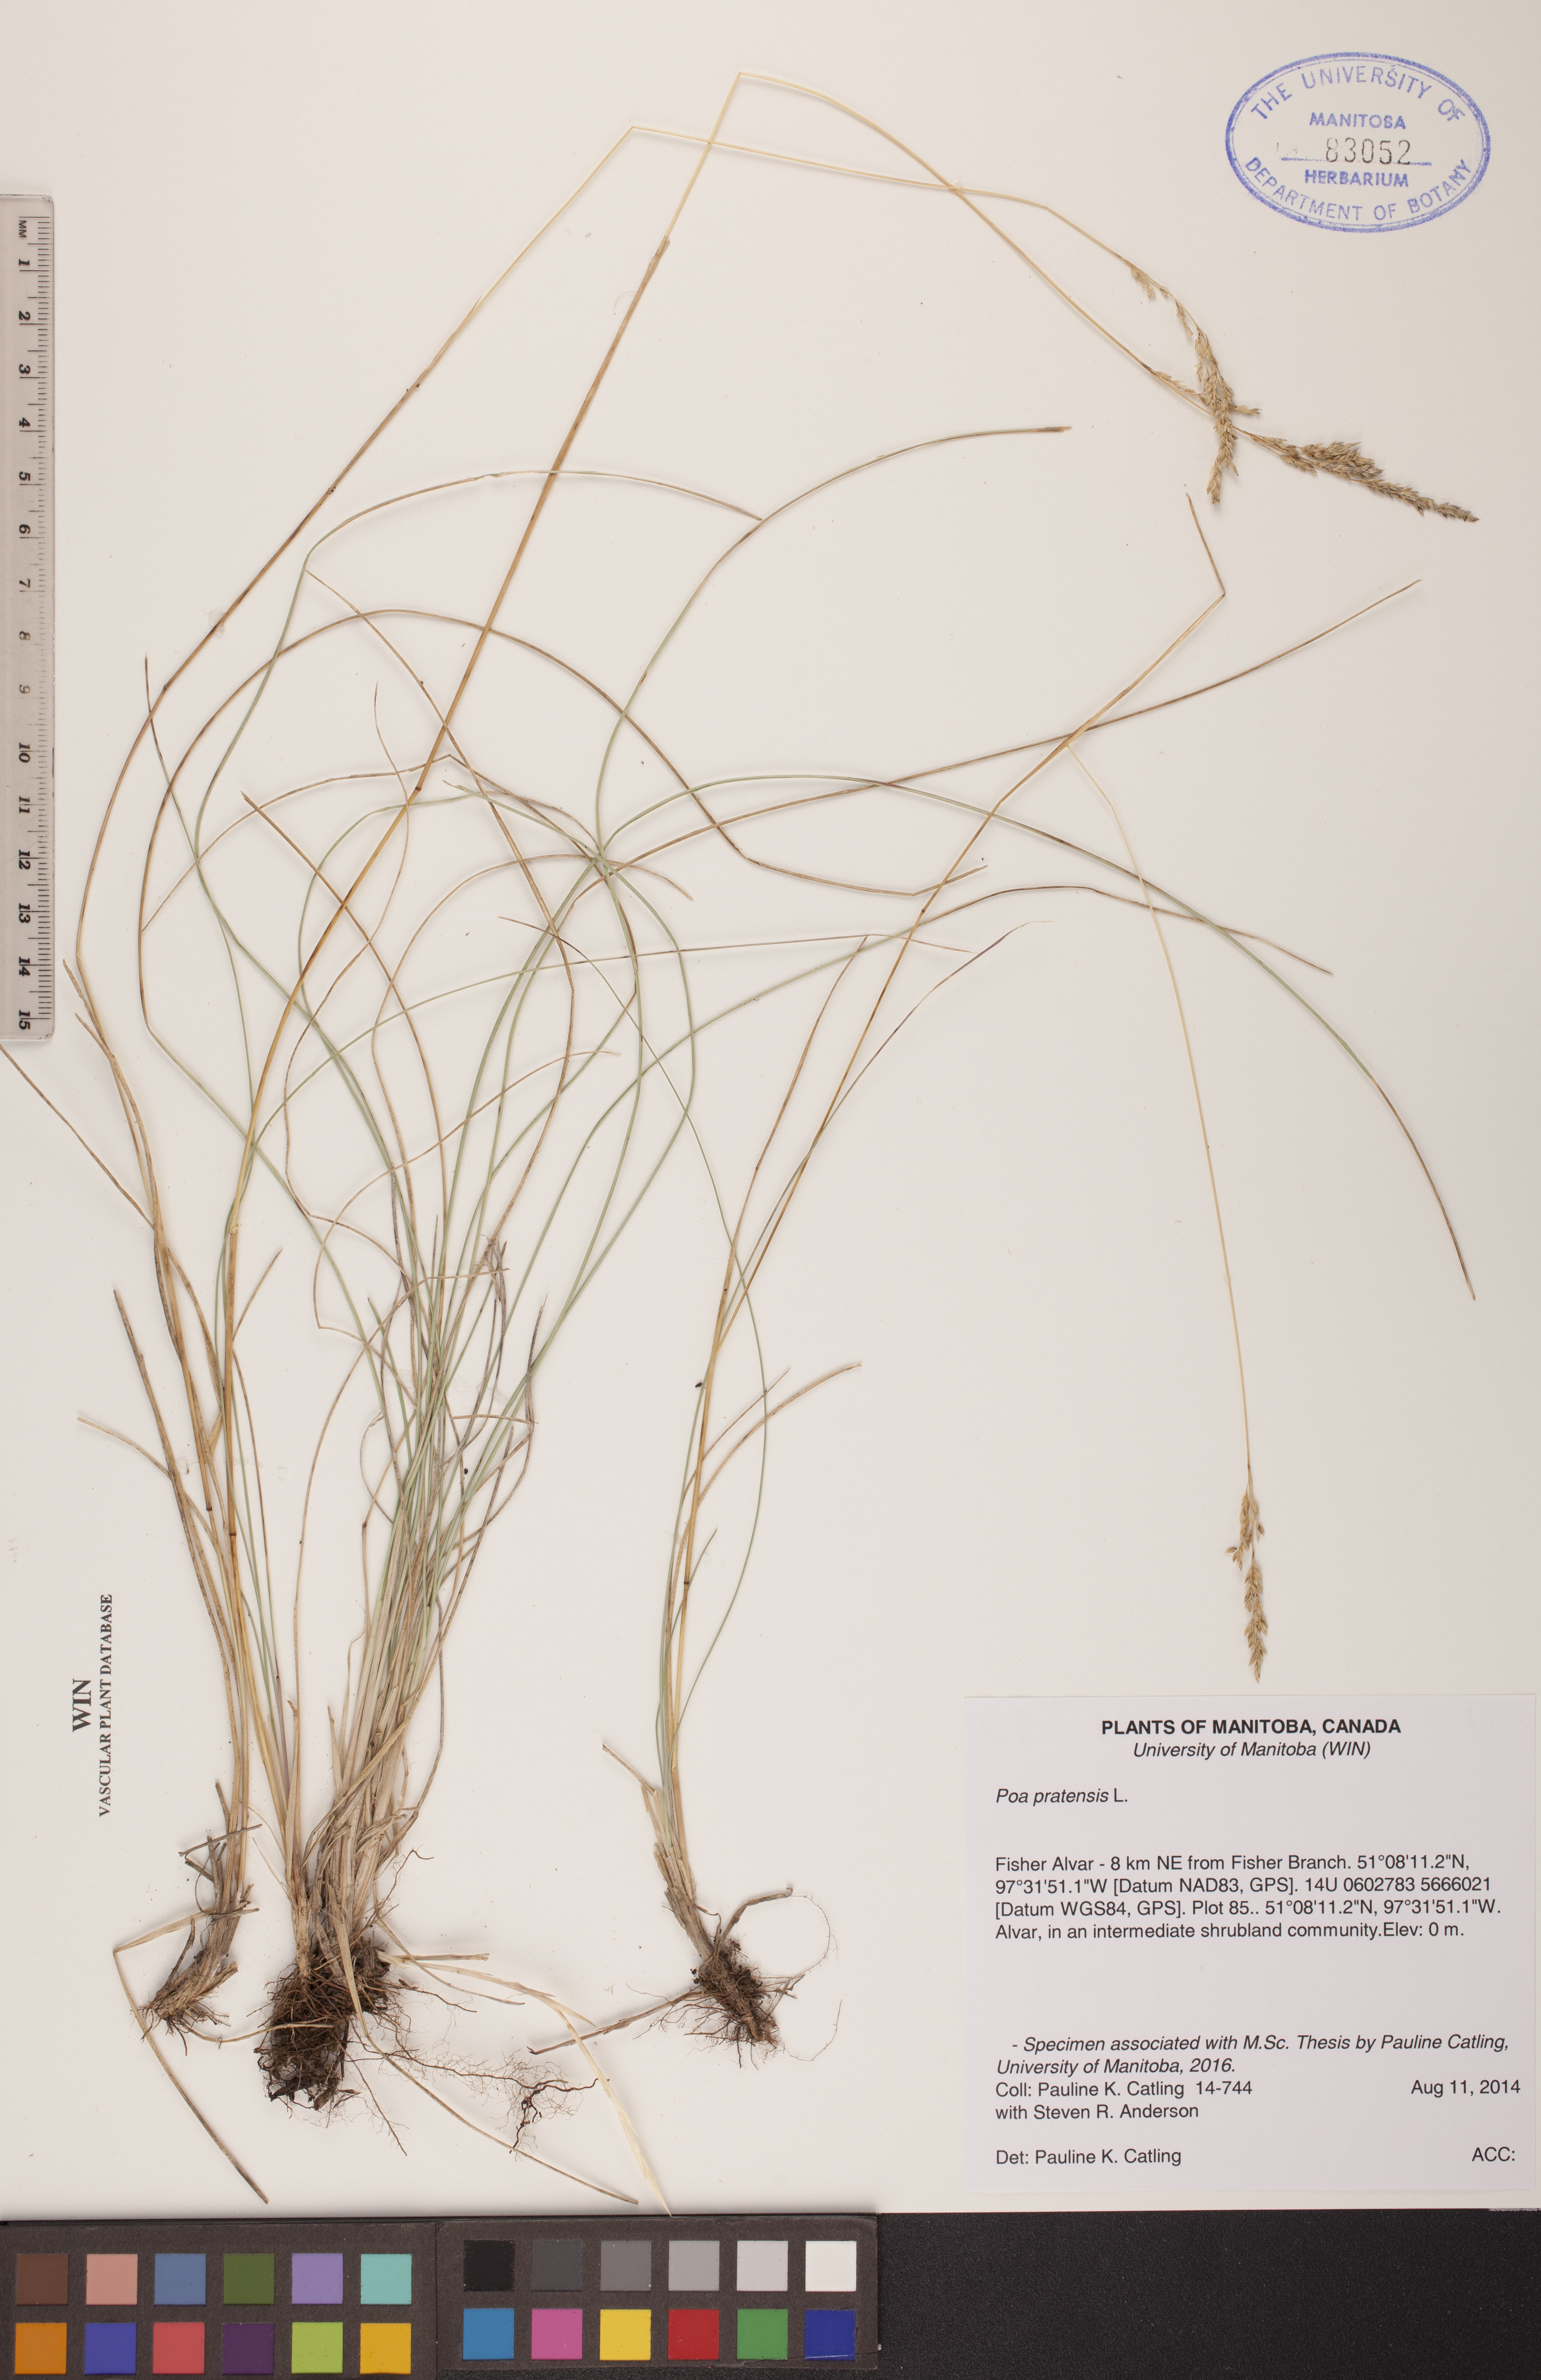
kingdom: Plantae
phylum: Tracheophyta
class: Liliopsida
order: Poales
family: Poaceae
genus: Poa
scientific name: Poa pratensis
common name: Kentucky bluegrass
